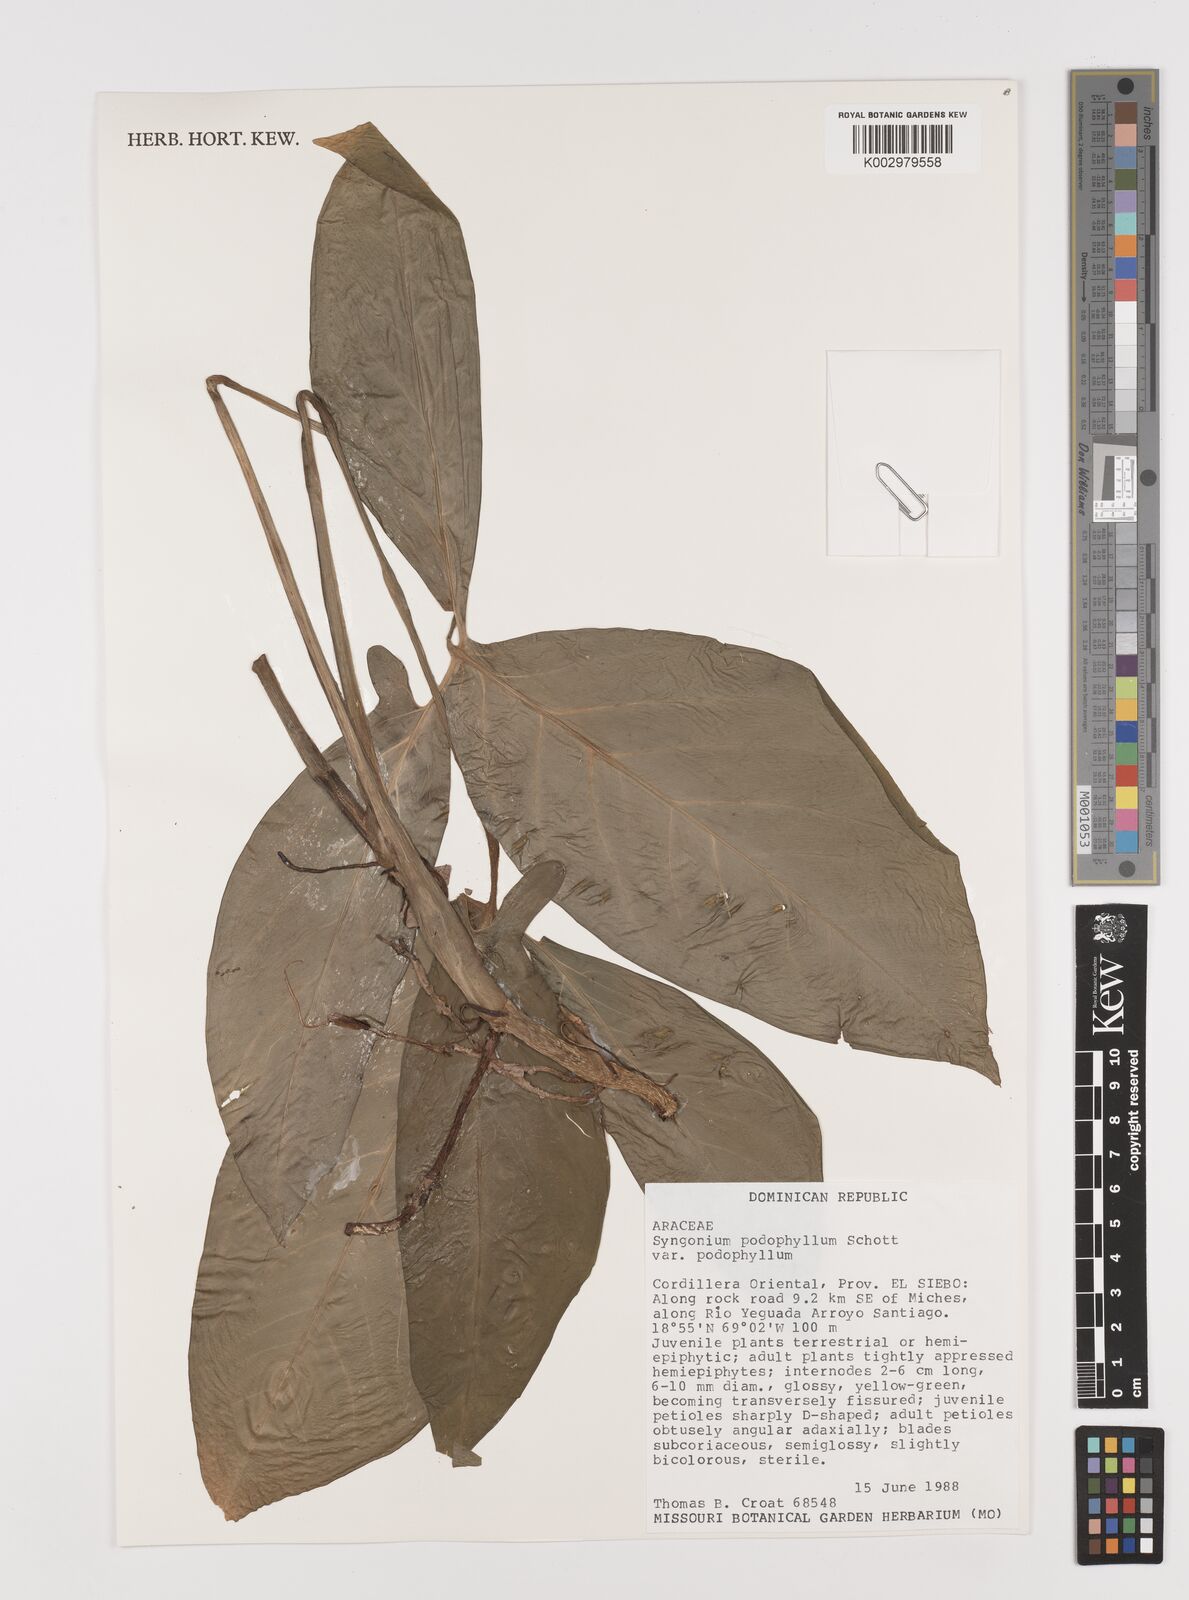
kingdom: Plantae
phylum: Tracheophyta
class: Liliopsida
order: Alismatales
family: Araceae
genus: Syngonium
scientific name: Syngonium podophyllum
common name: American evergreen
